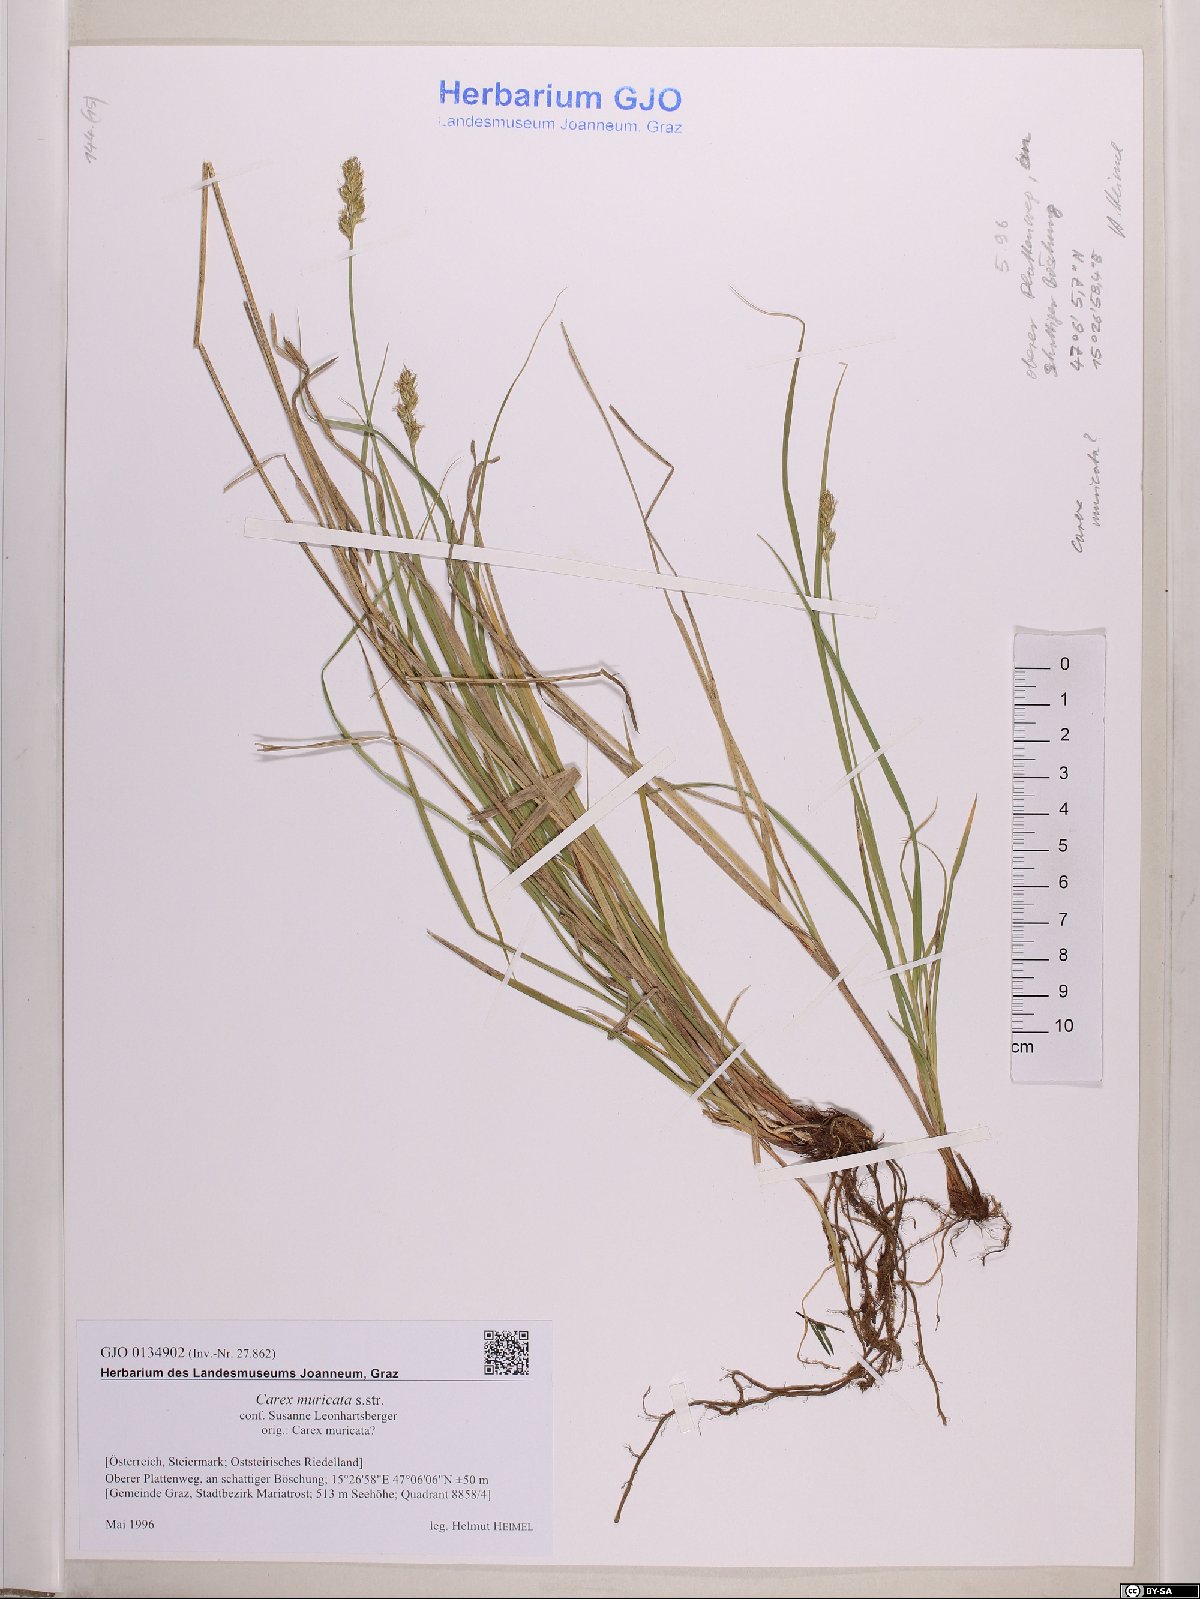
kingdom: Plantae
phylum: Tracheophyta
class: Liliopsida
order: Poales
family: Cyperaceae
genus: Carex
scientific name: Carex muricata
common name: Rough sedge
